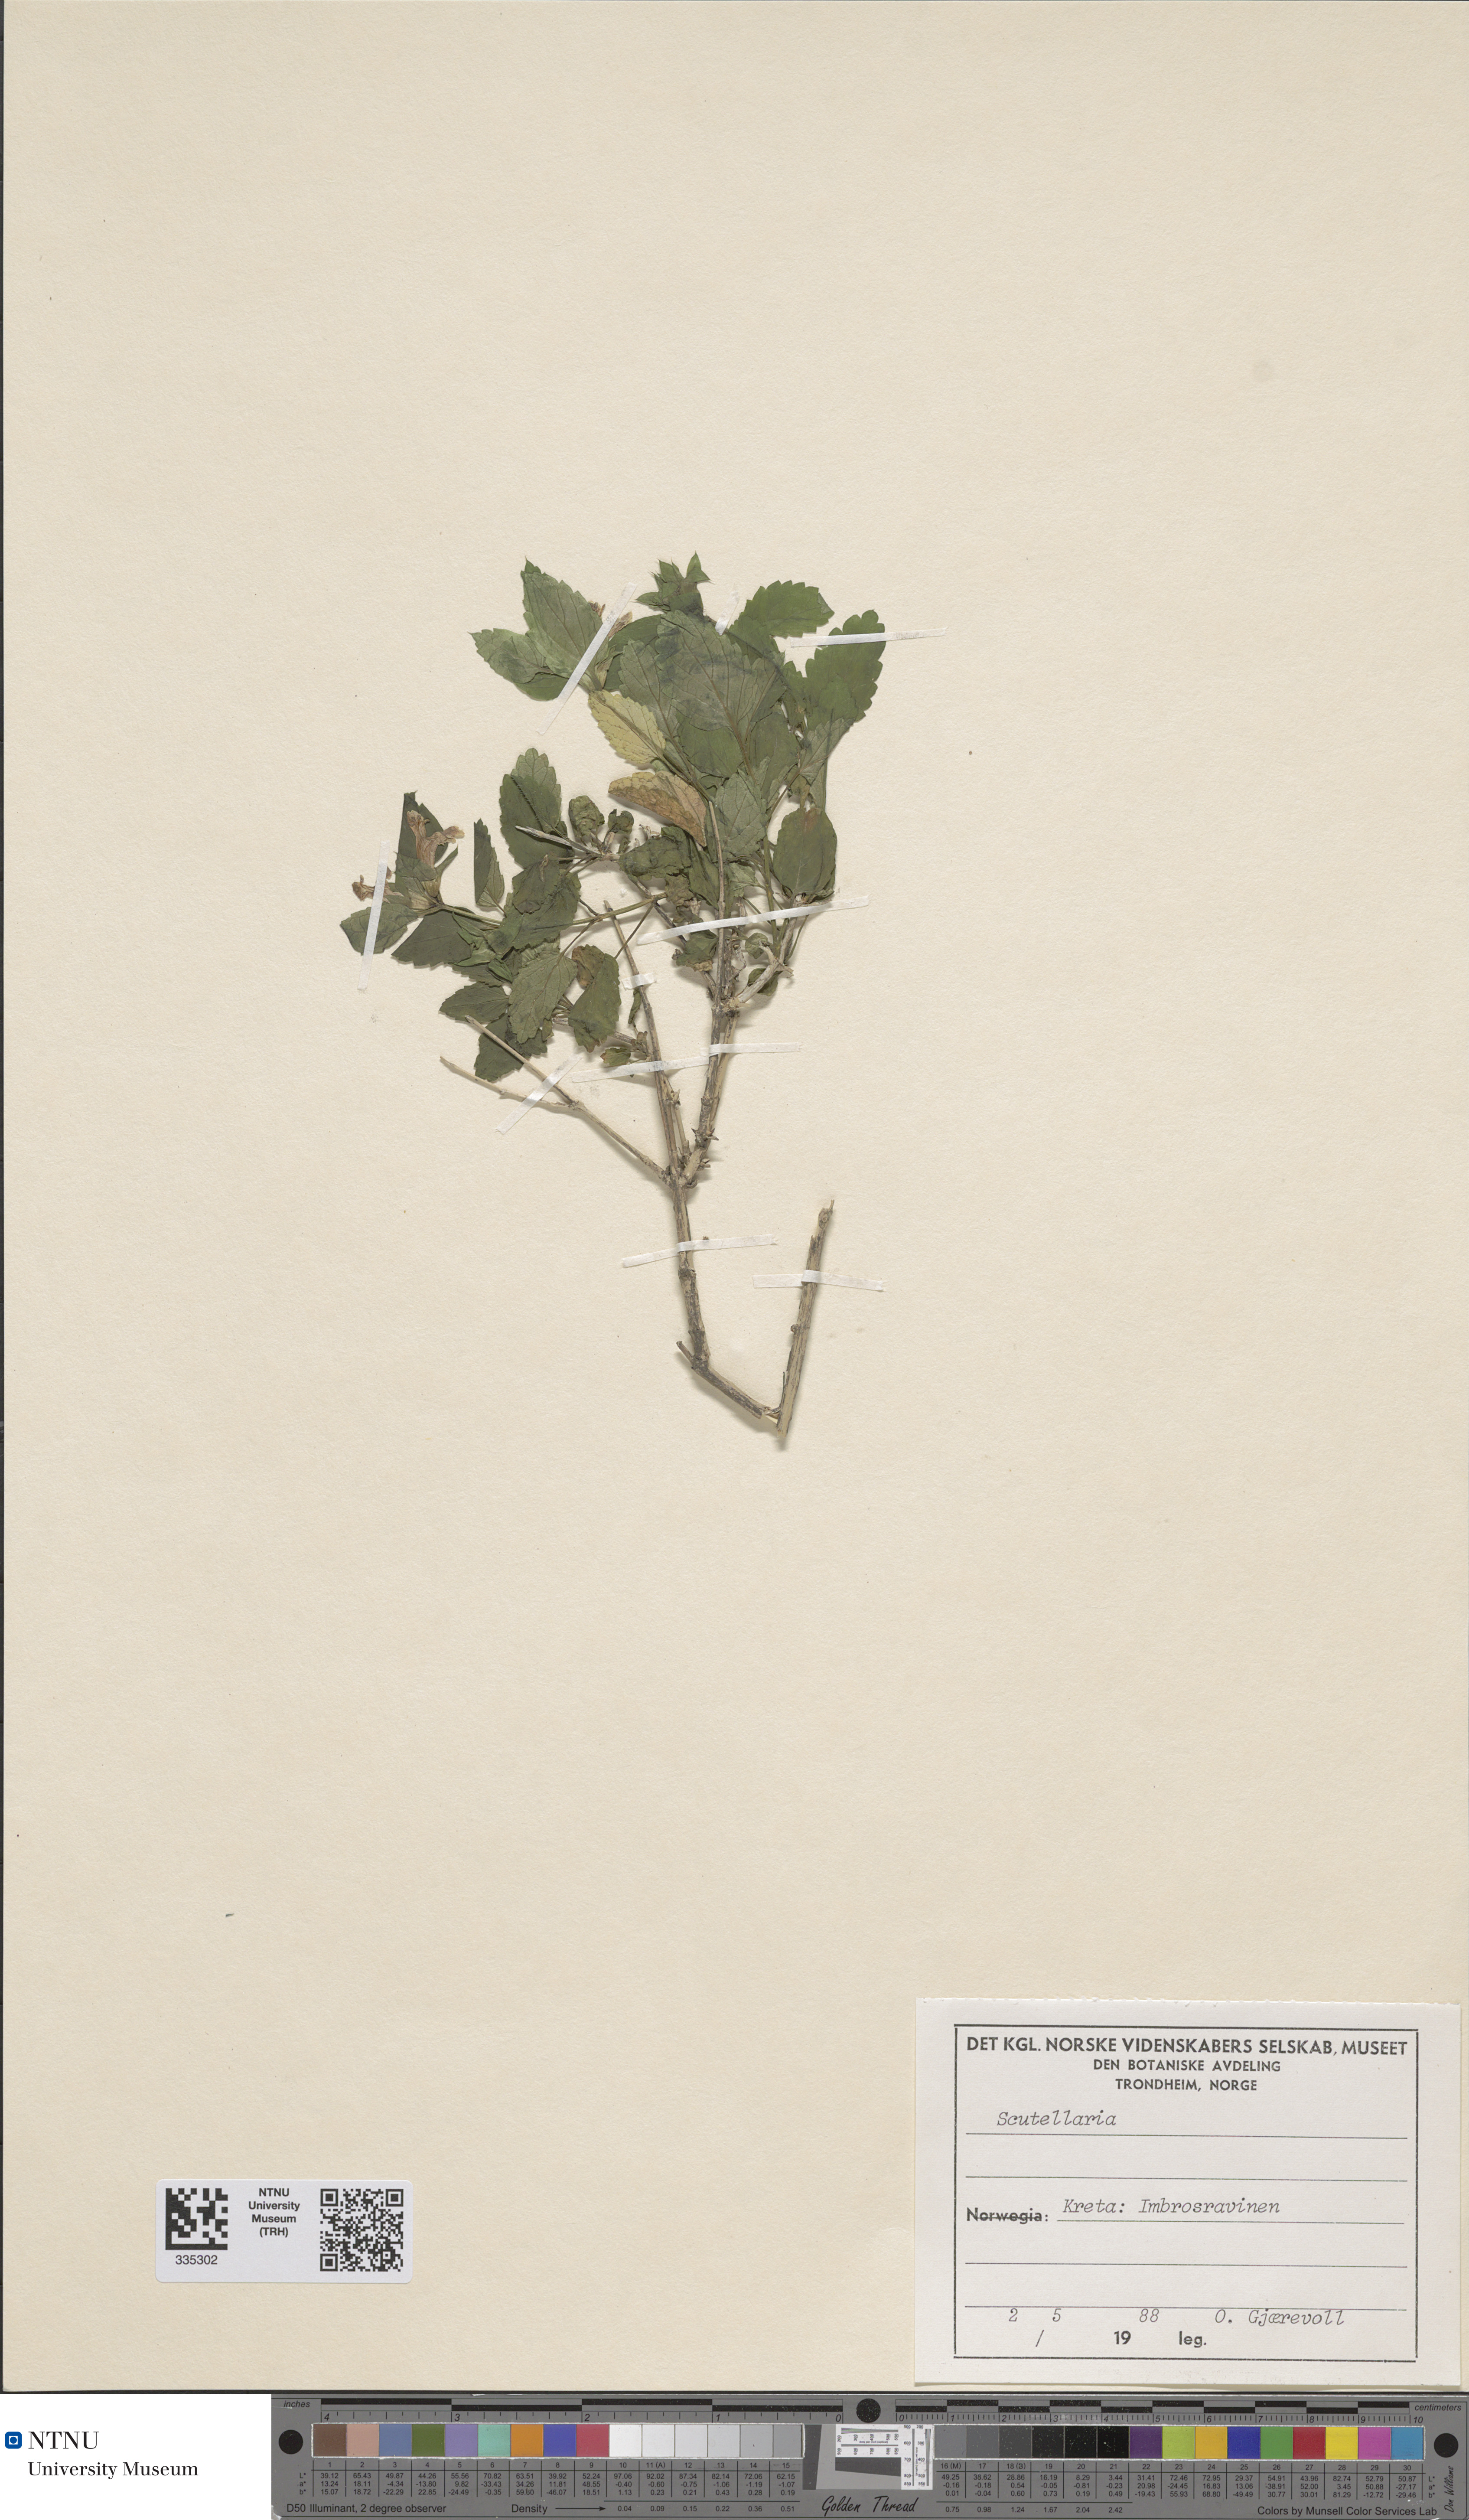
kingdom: Plantae
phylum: Tracheophyta
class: Magnoliopsida
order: Lamiales
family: Lamiaceae
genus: Scutellaria
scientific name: Scutellaria
